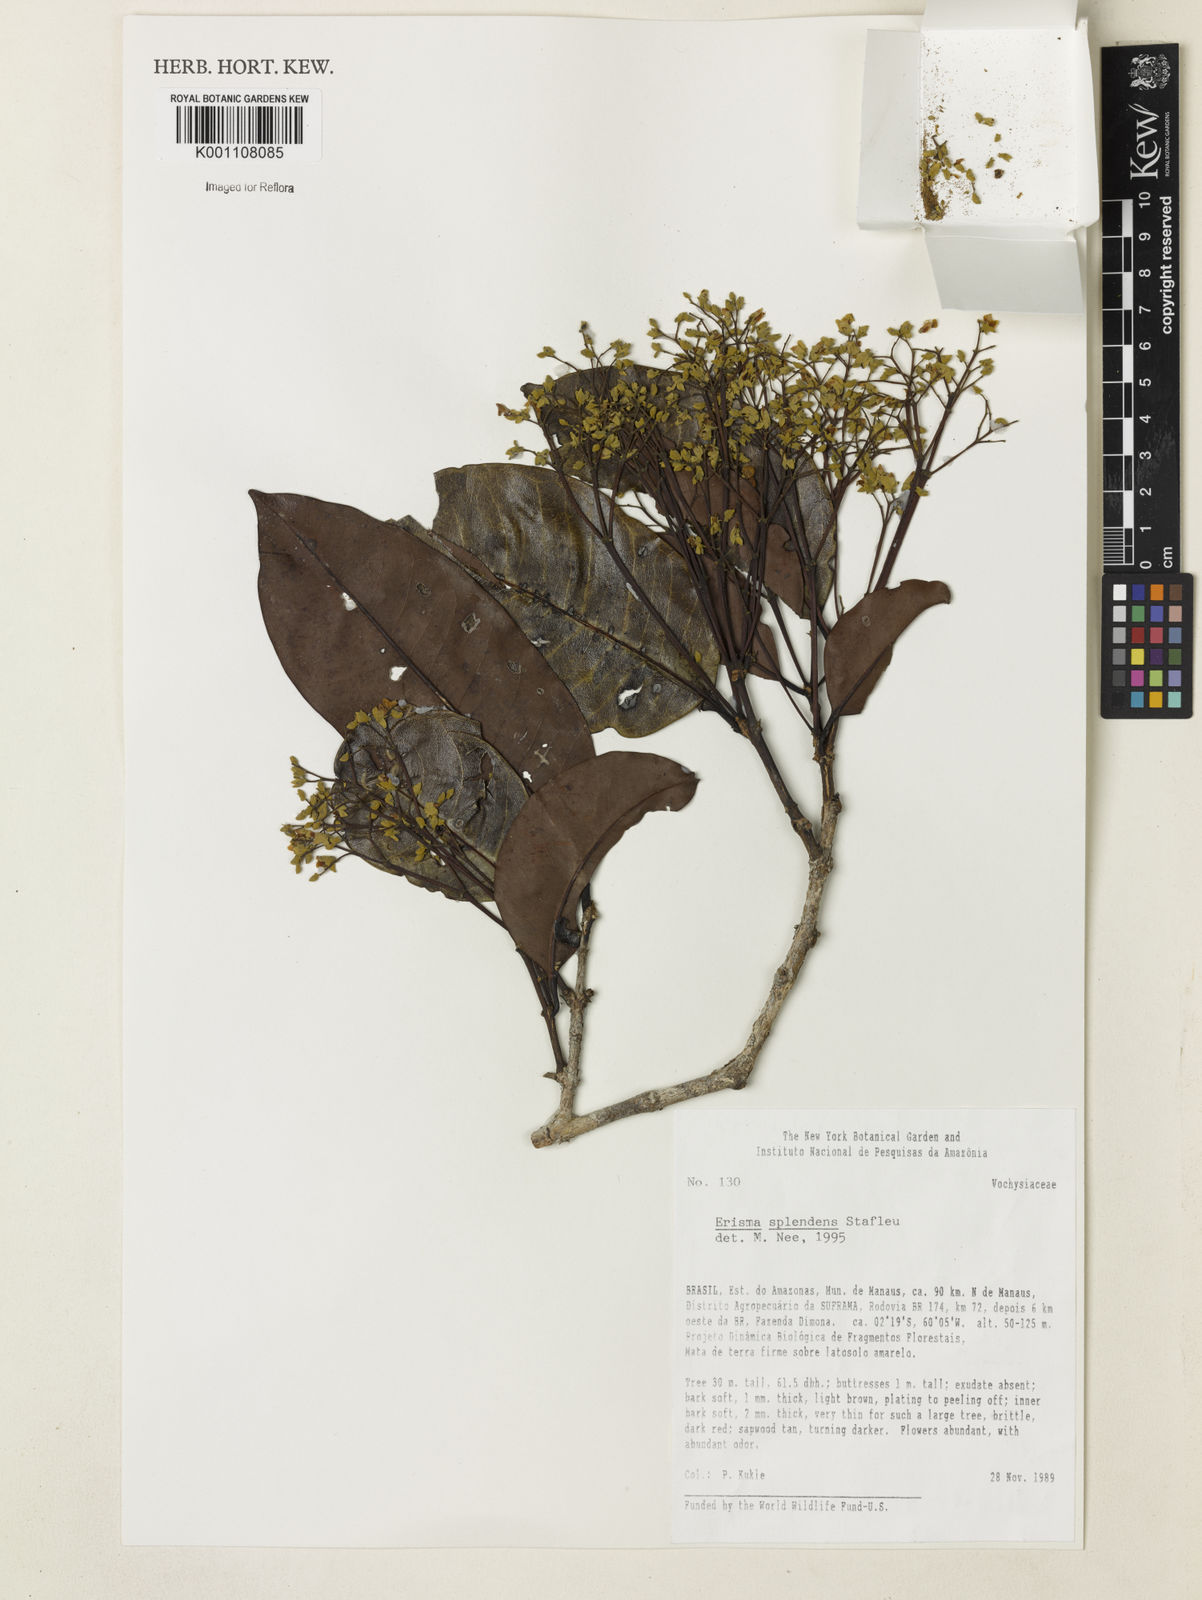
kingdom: Plantae
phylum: Tracheophyta
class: Magnoliopsida
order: Myrtales
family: Vochysiaceae
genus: Erisma
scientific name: Erisma splendens
